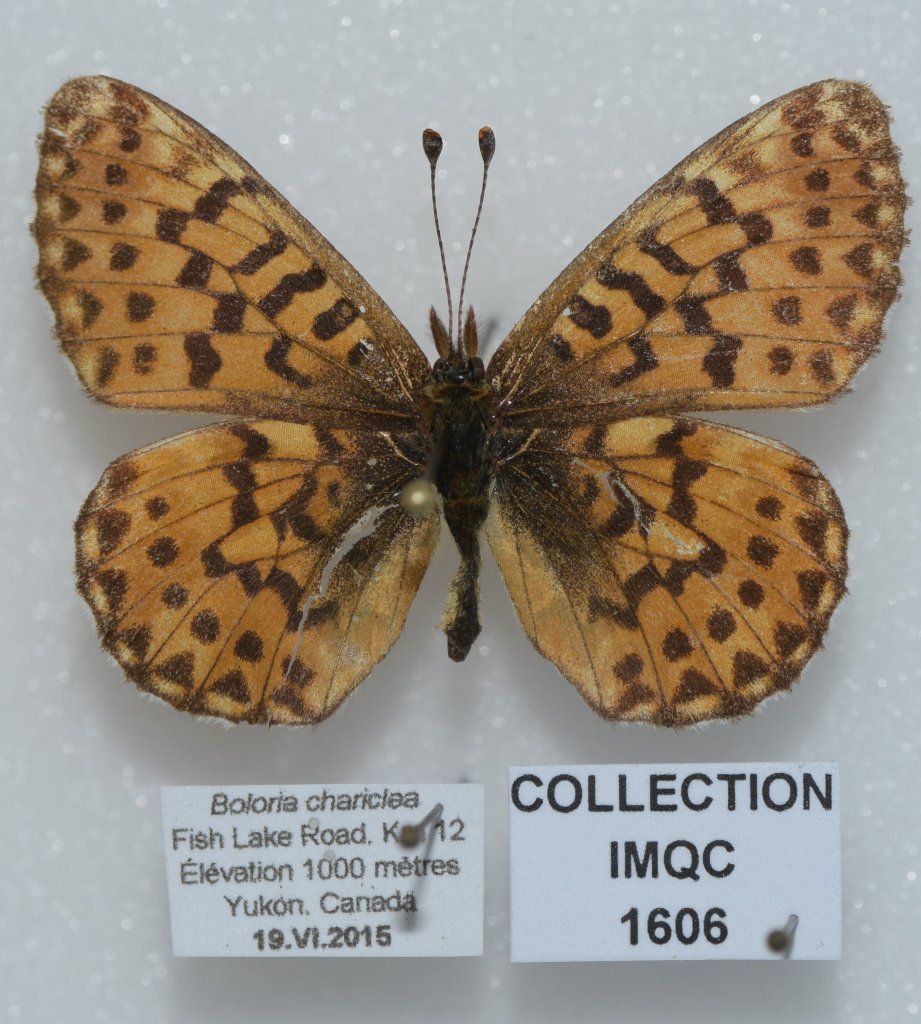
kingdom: Animalia
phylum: Arthropoda
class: Insecta
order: Lepidoptera
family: Nymphalidae
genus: Boloria
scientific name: Boloria chariclea
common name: Arctic Fritillary
